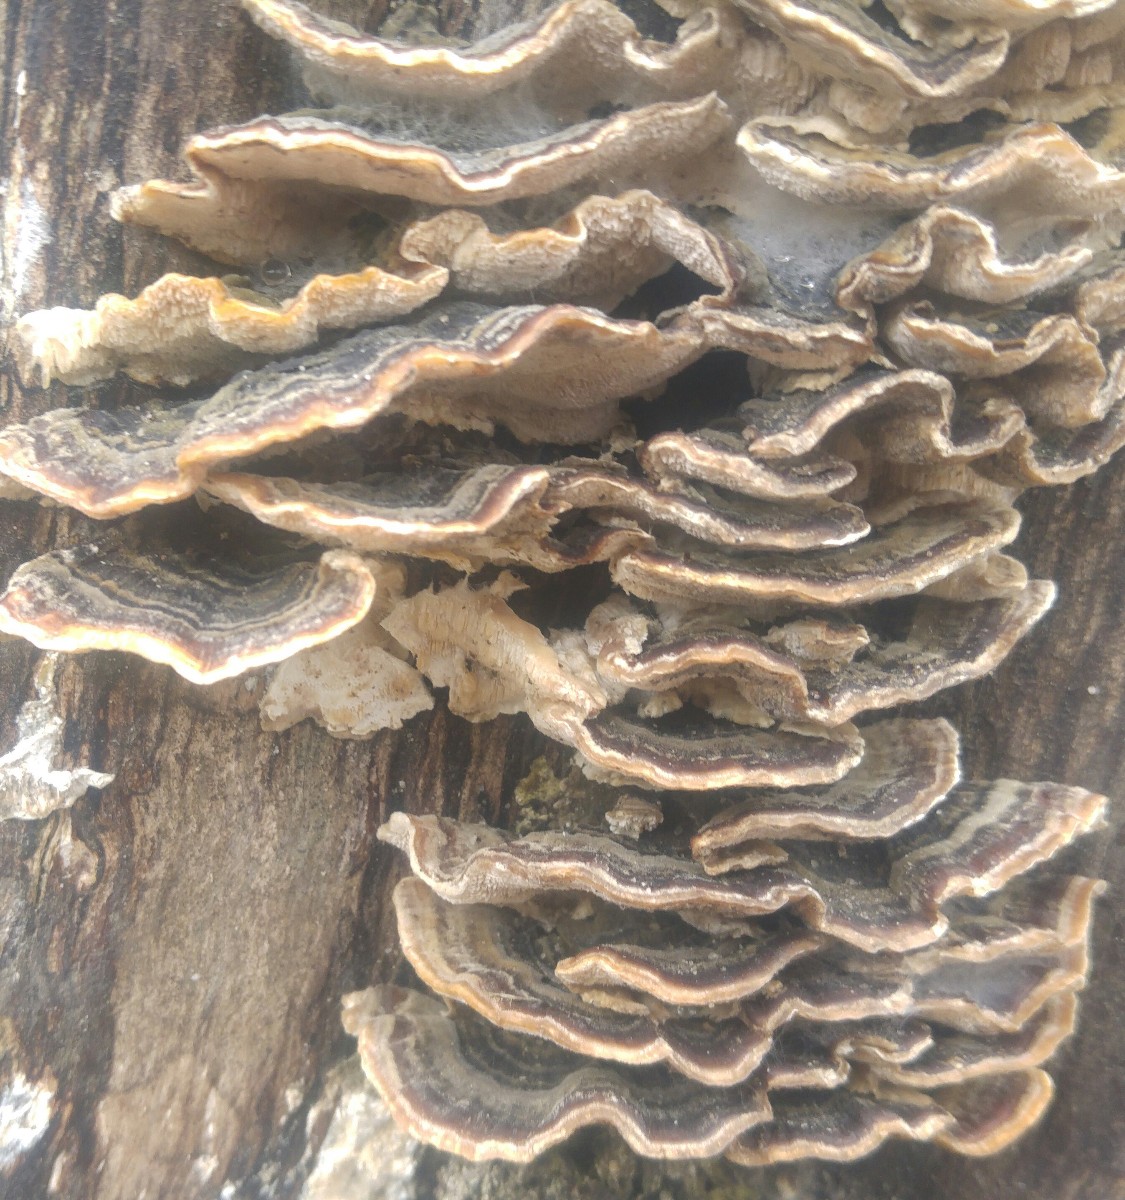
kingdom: Fungi
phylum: Basidiomycota
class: Agaricomycetes
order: Polyporales
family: Polyporaceae
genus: Trametes
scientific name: Trametes versicolor
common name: broget læderporesvamp
